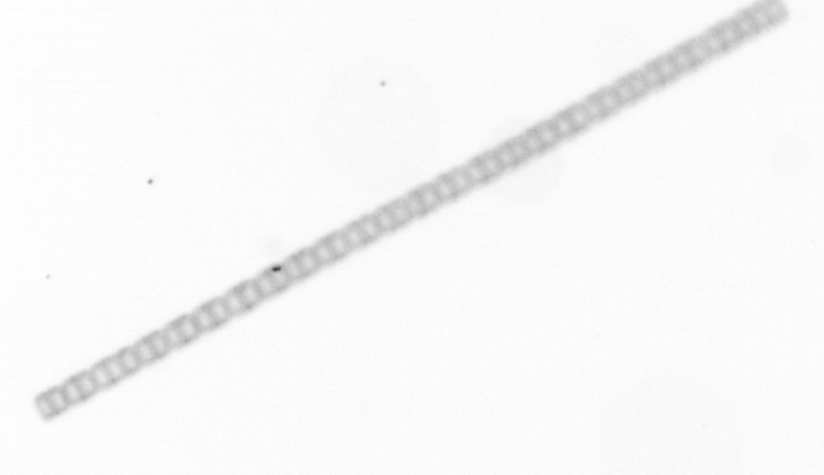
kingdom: Chromista
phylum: Ochrophyta
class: Bacillariophyceae
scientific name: Bacillariophyceae
